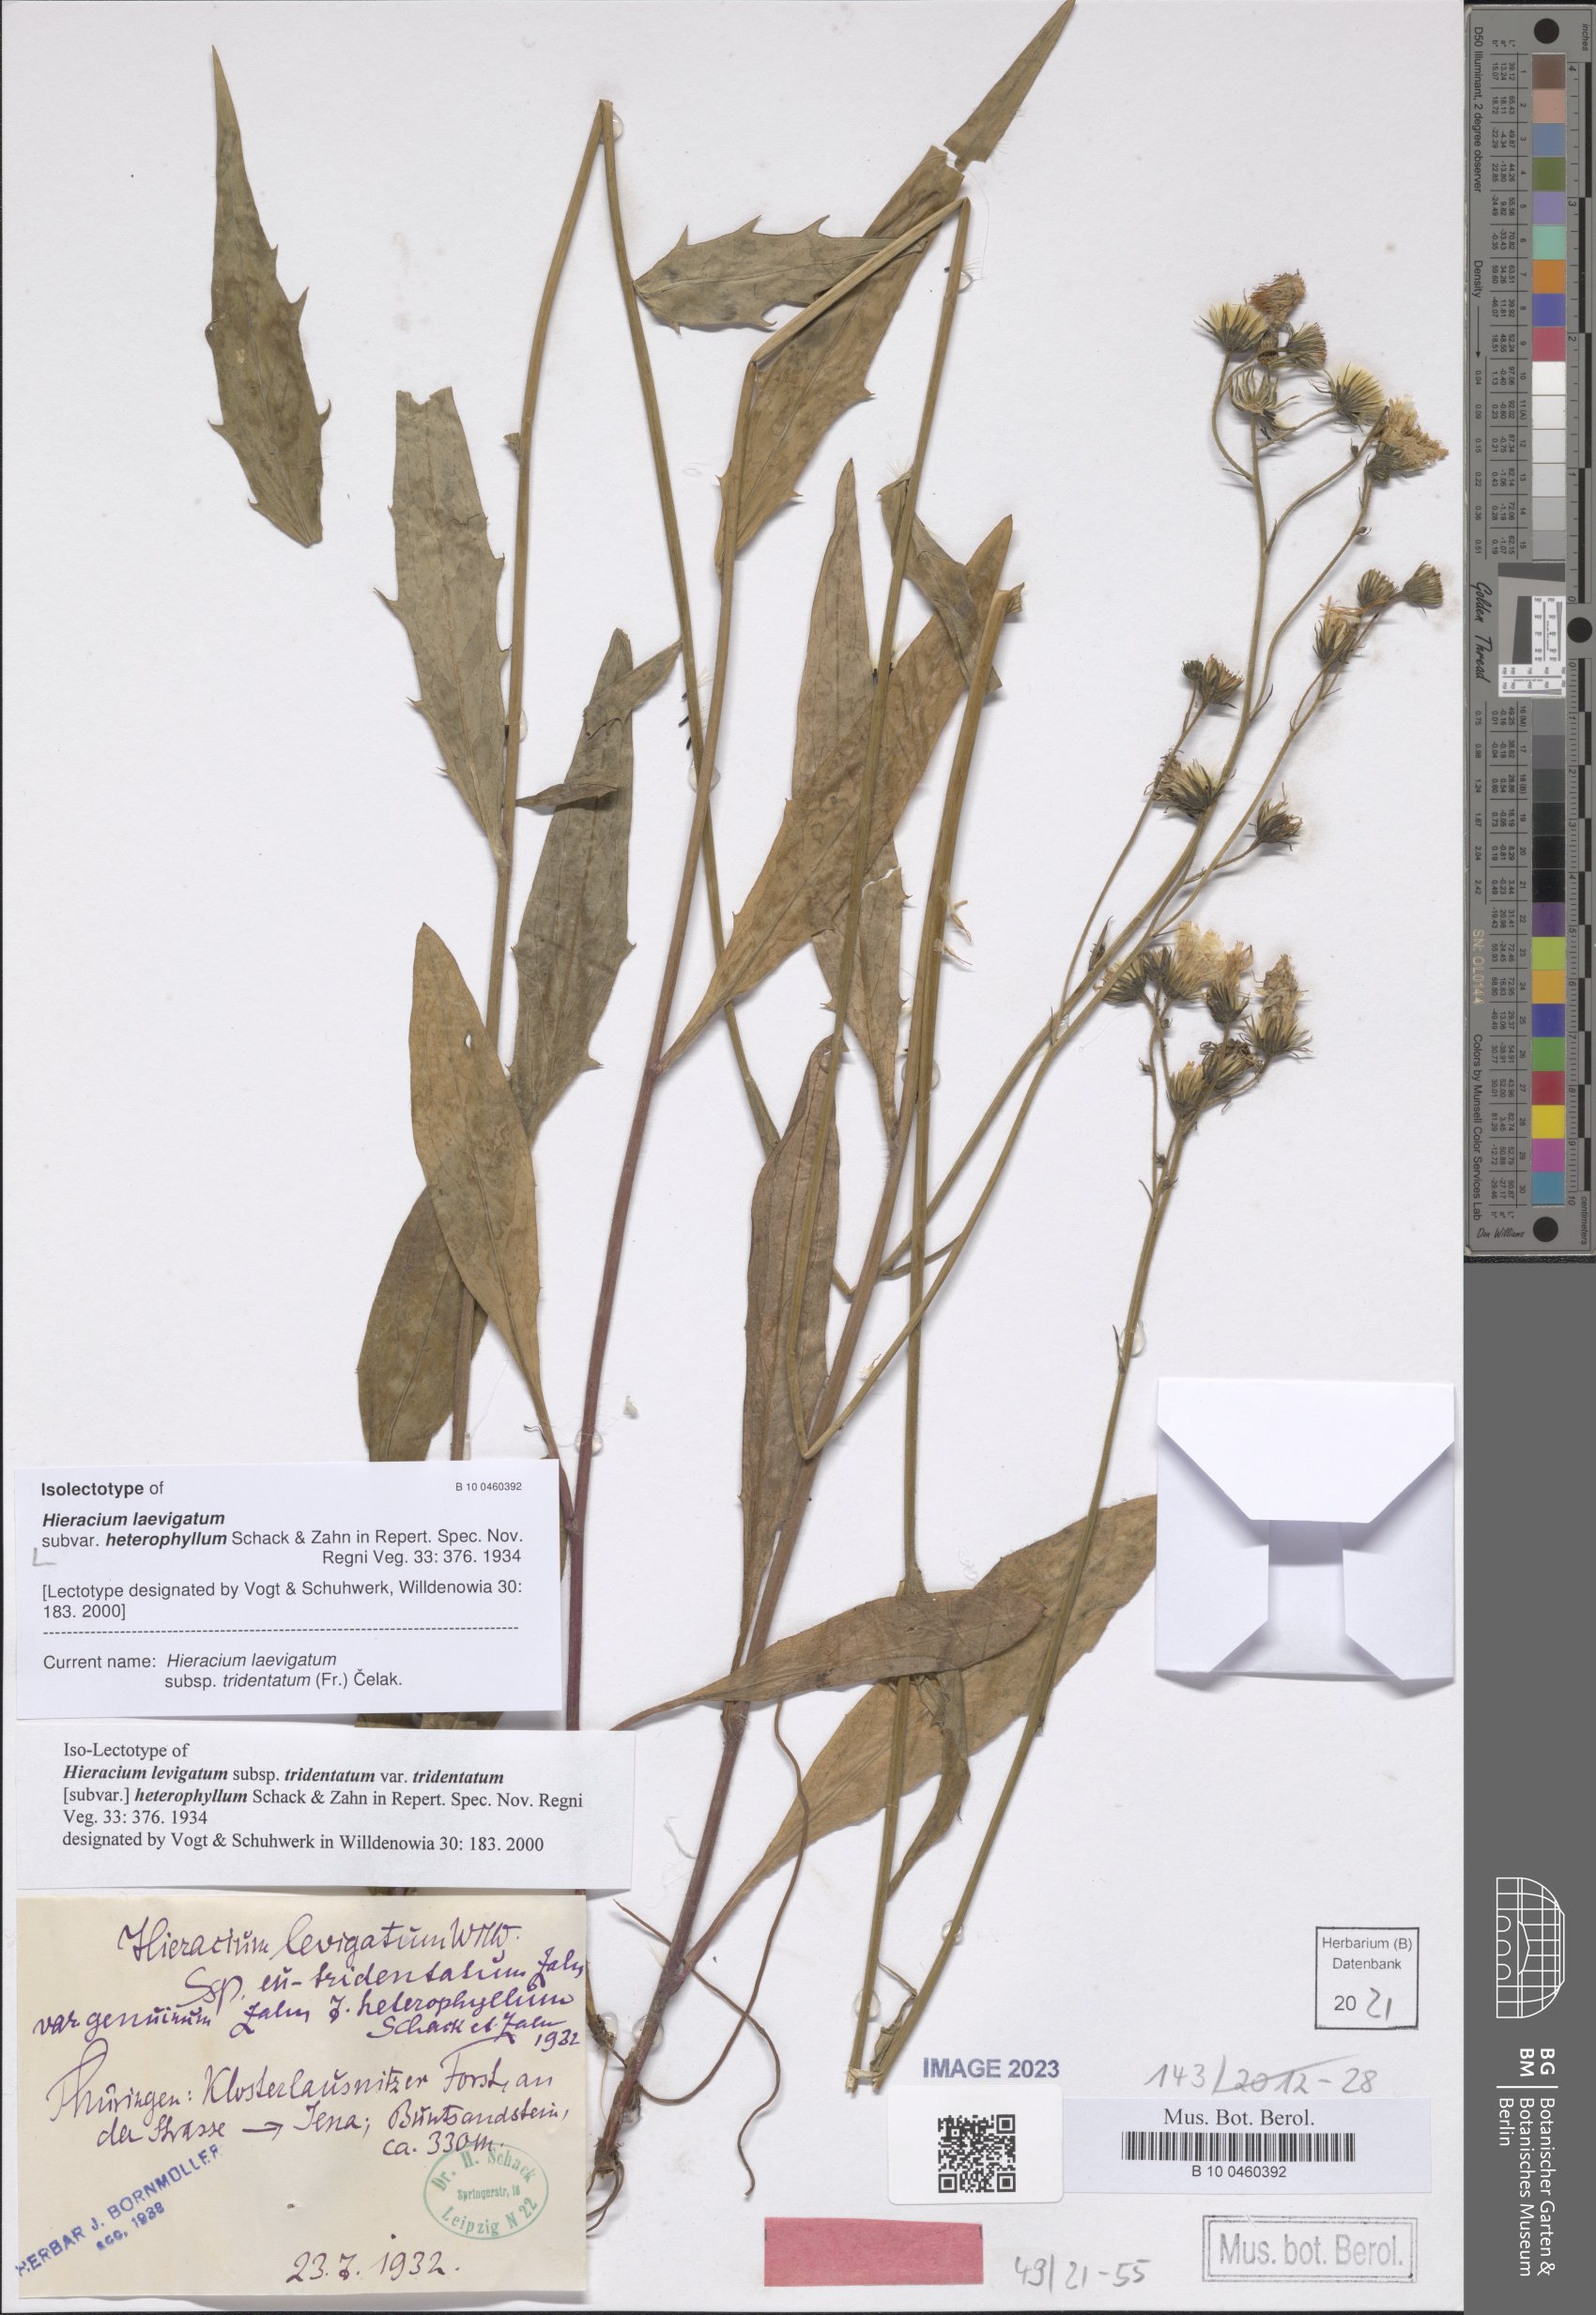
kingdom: Plantae
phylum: Tracheophyta
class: Magnoliopsida
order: Asterales
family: Asteraceae
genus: Hieracium
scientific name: Hieracium laevigatum
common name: Smooth hawkweed
